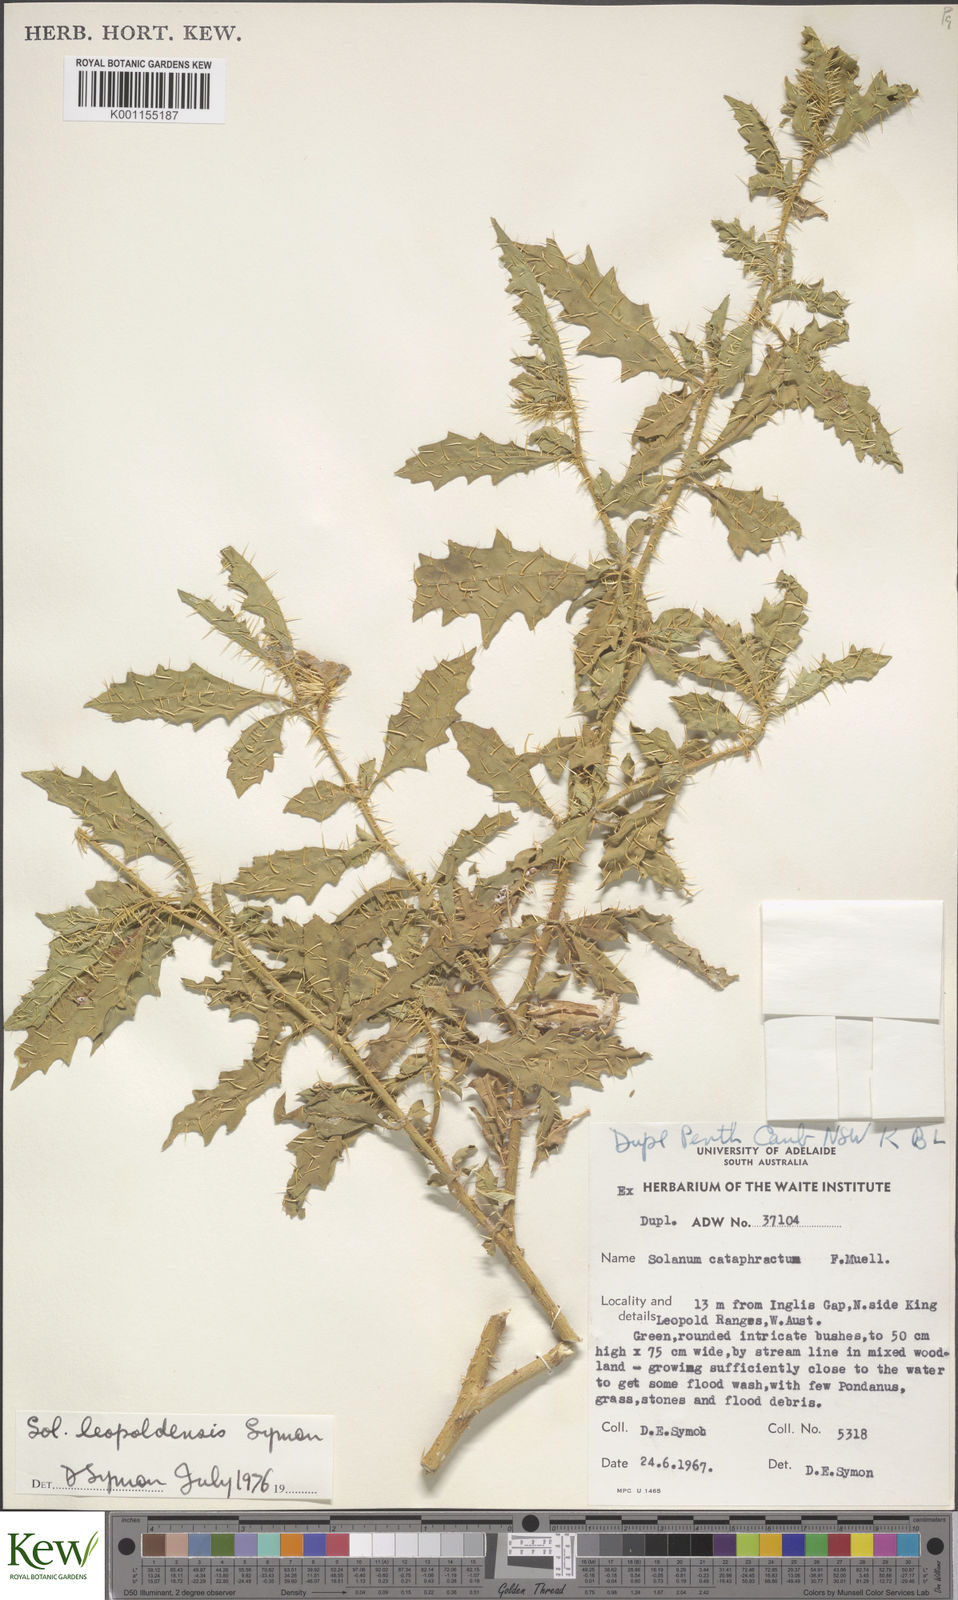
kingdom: Plantae
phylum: Tracheophyta
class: Magnoliopsida
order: Solanales
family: Solanaceae
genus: Solanum
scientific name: Solanum
